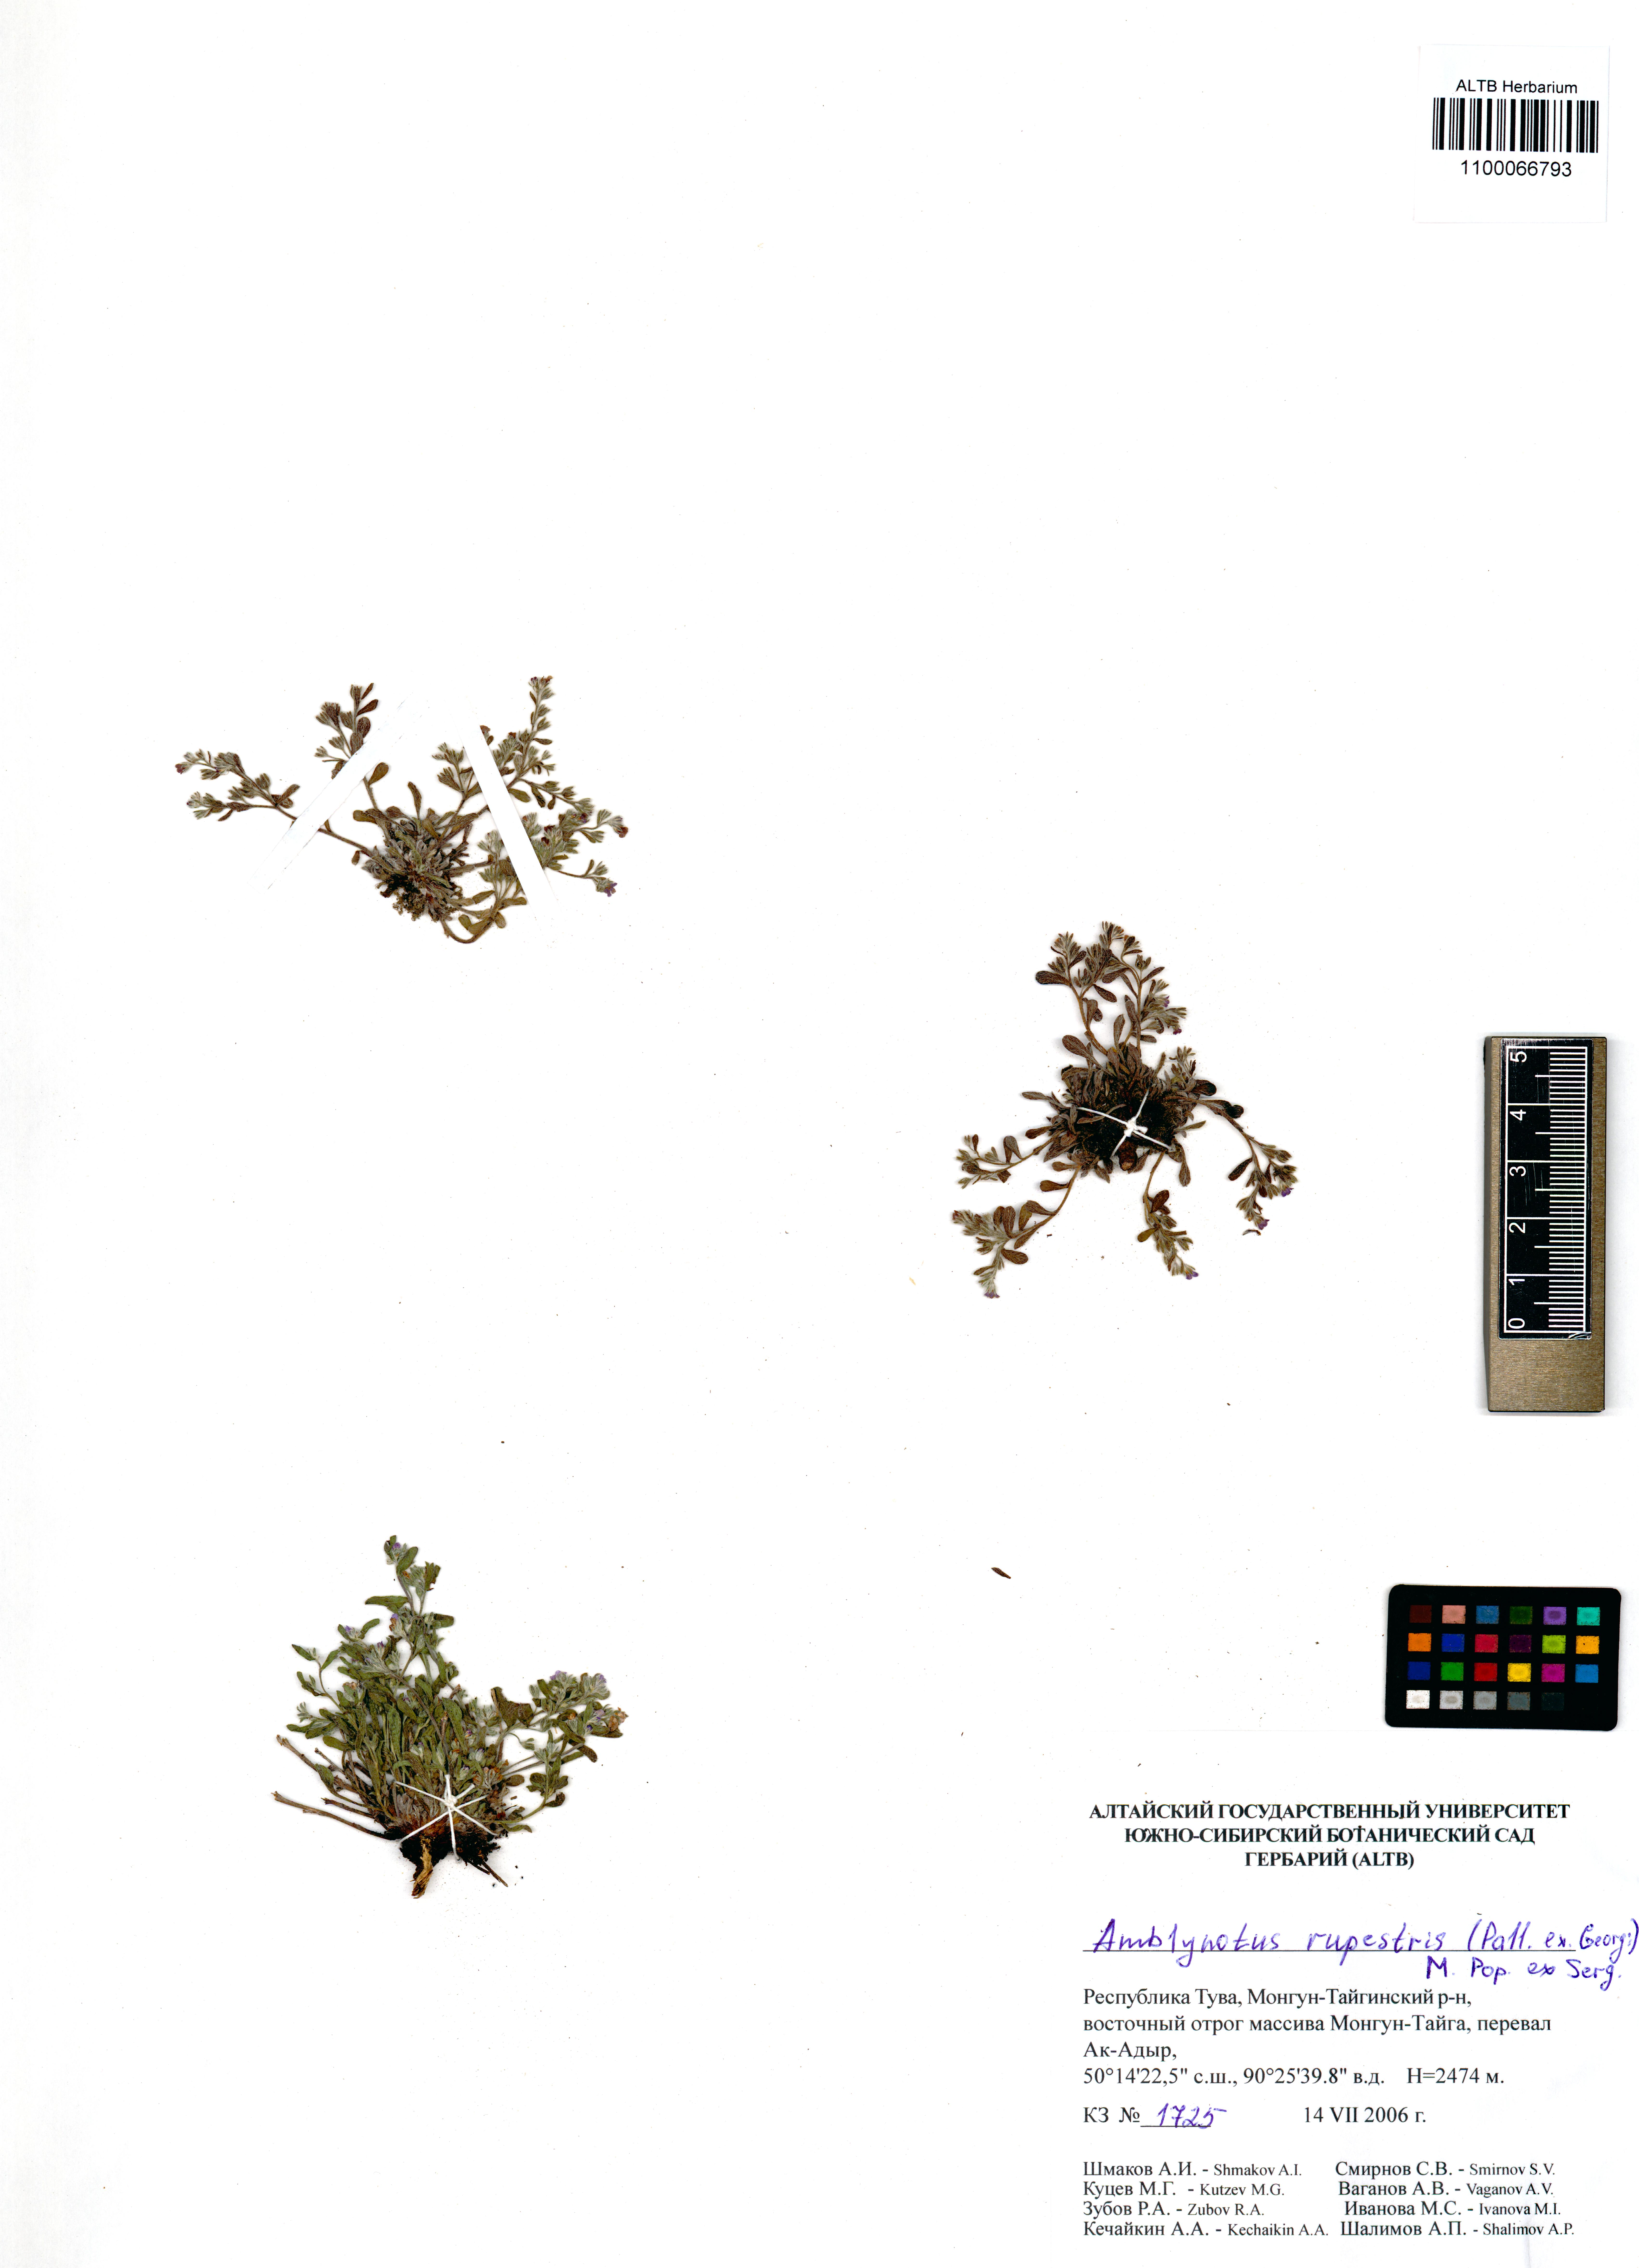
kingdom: Plantae
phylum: Tracheophyta
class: Magnoliopsida
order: Boraginales
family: Boraginaceae
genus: Eritrichium
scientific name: Eritrichium rupestre
